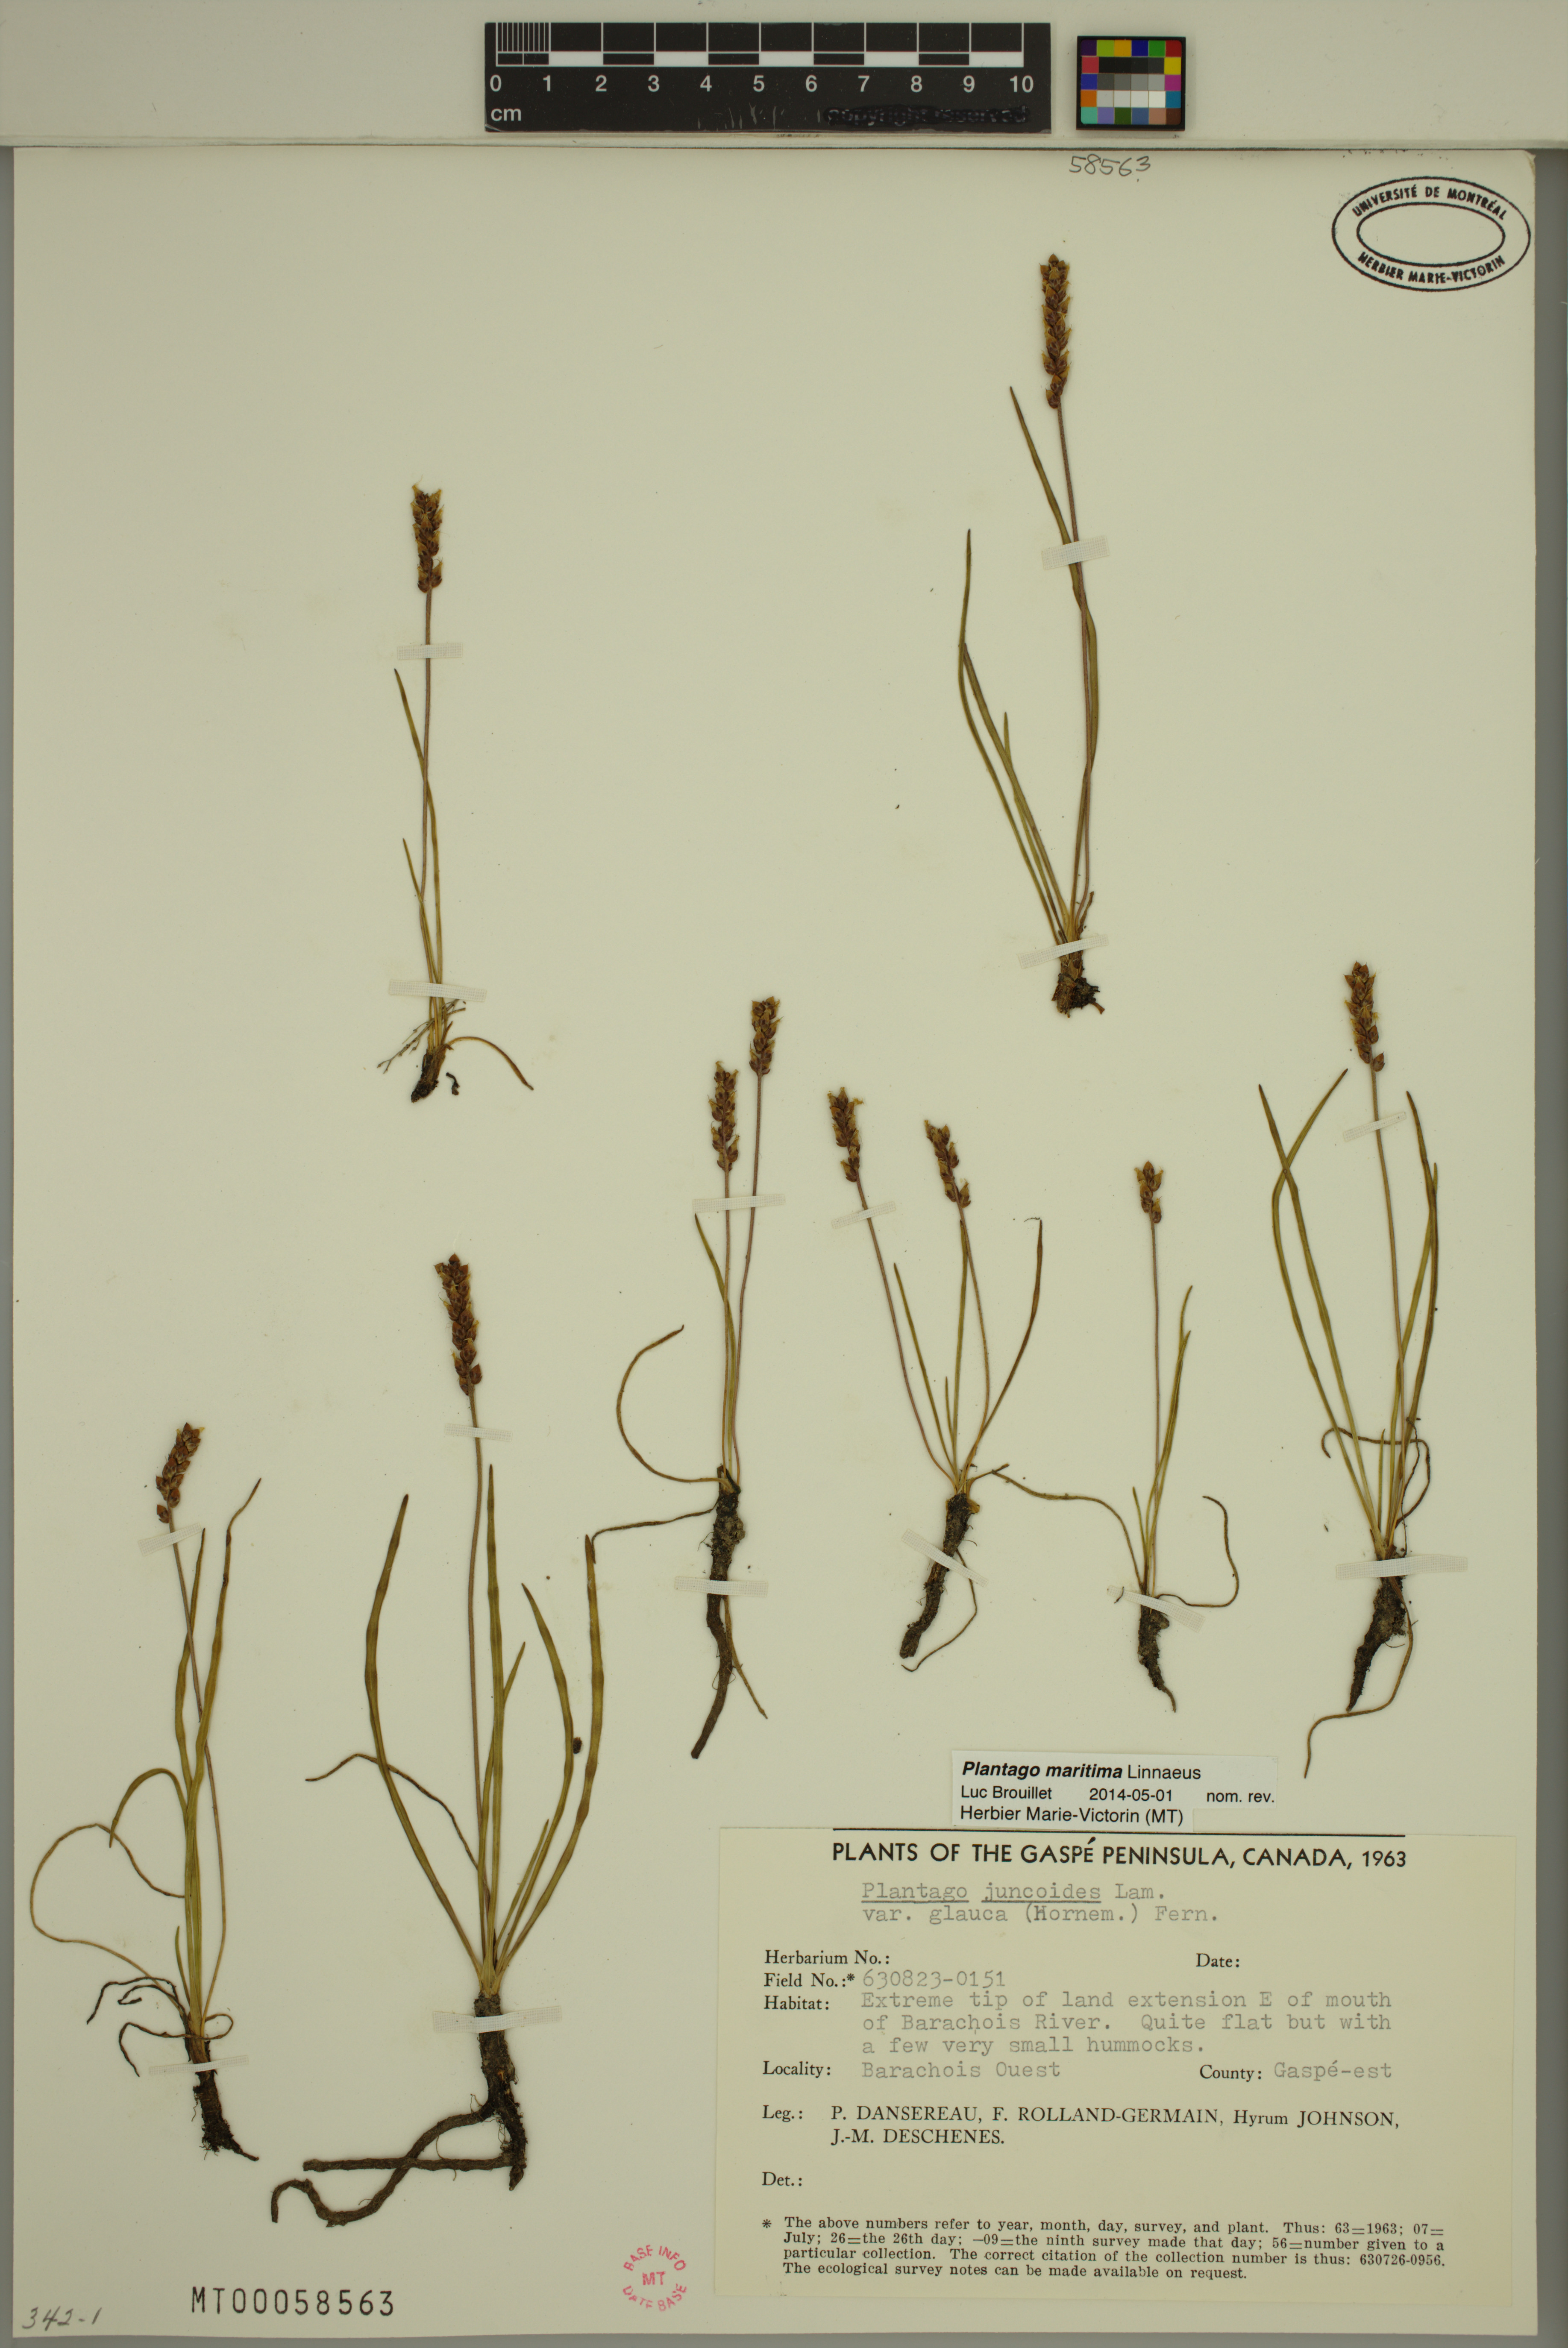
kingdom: Plantae
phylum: Tracheophyta
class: Magnoliopsida
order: Lamiales
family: Plantaginaceae
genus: Plantago
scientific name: Plantago maritima
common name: Sea plantain
